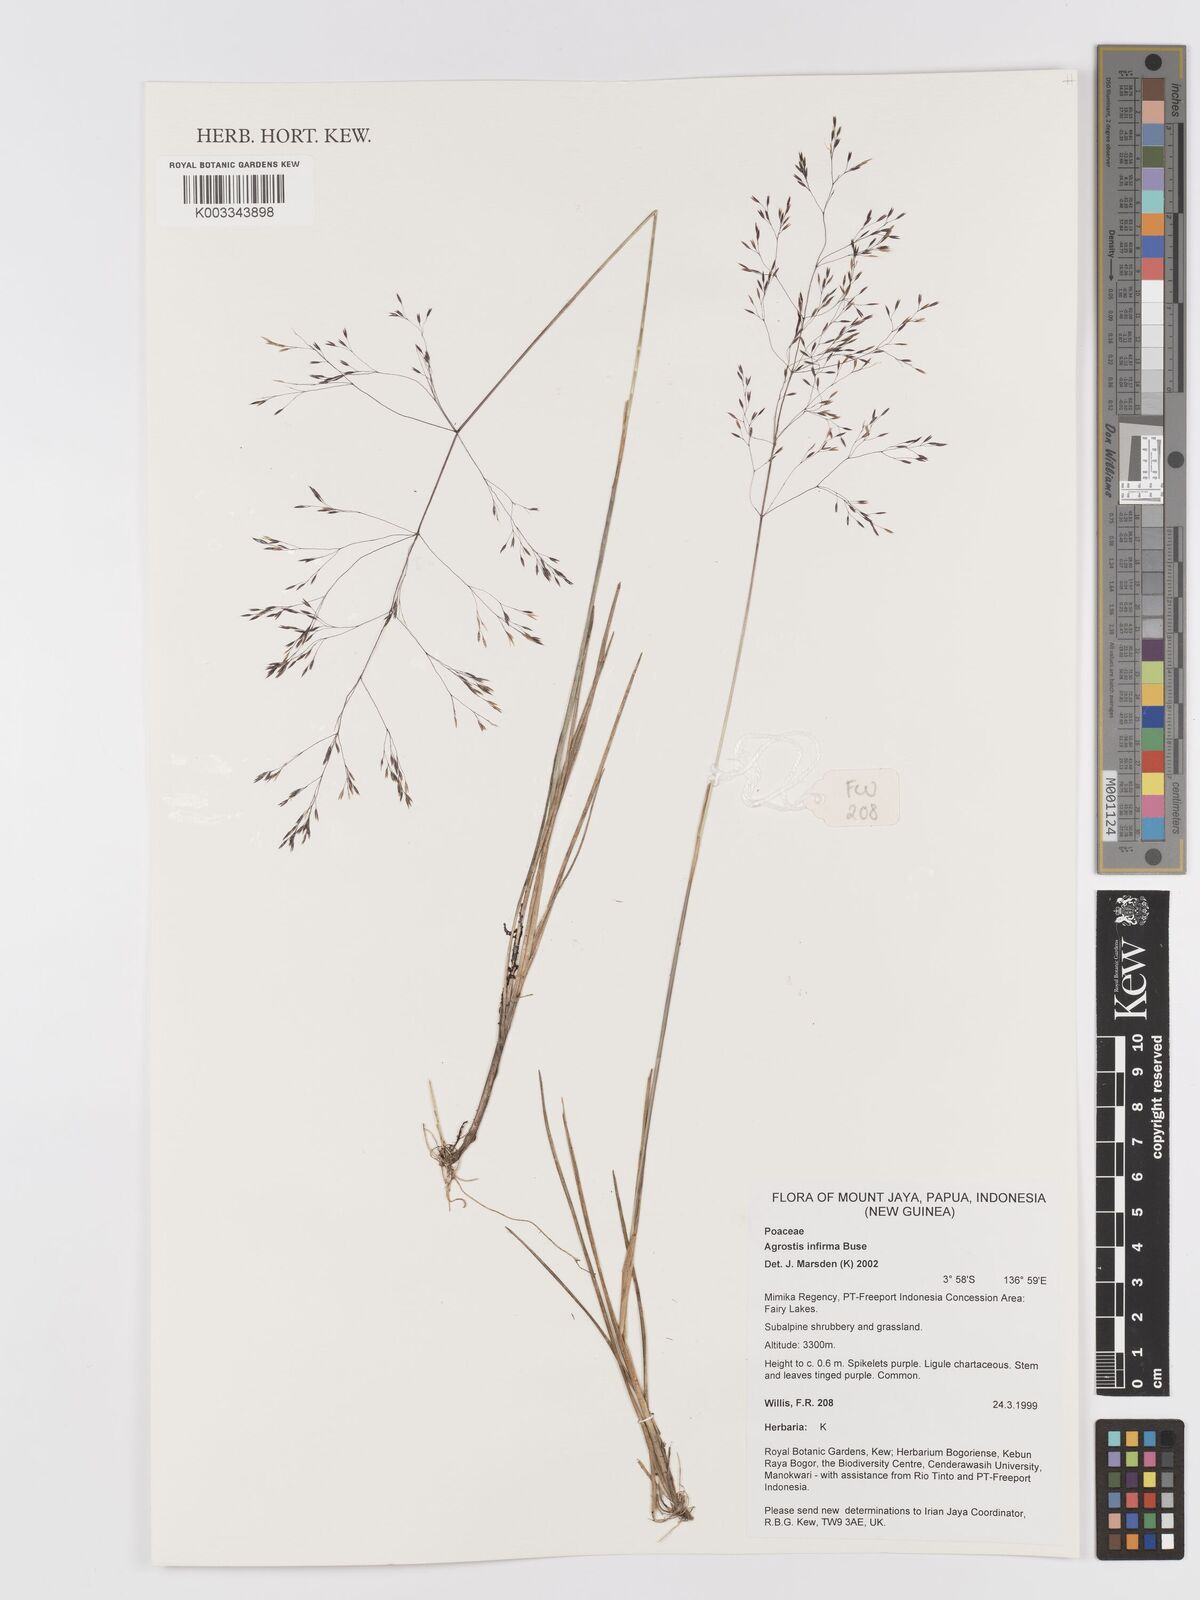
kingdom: Plantae
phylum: Tracheophyta
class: Liliopsida
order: Poales
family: Poaceae
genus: Agrostis
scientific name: Agrostis infirma
